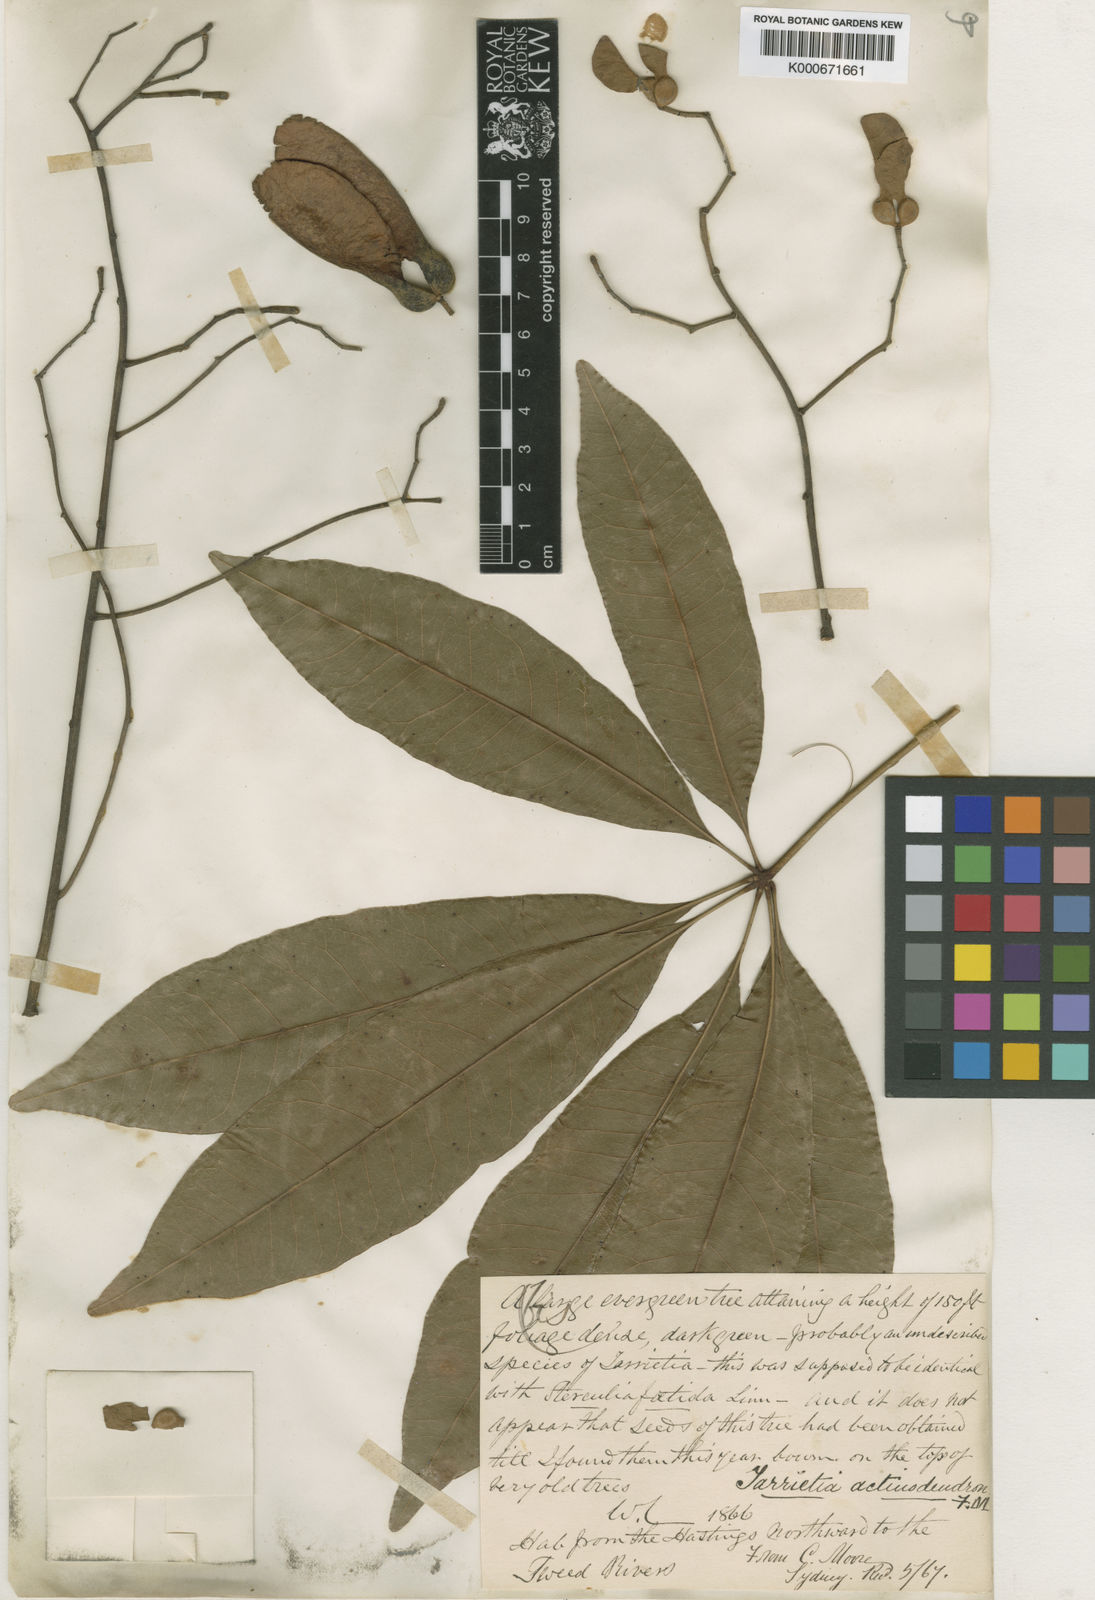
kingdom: Plantae
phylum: Tracheophyta
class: Magnoliopsida
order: Malvales
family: Malvaceae
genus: Argyrodendron
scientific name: Argyrodendron actinophyllum
